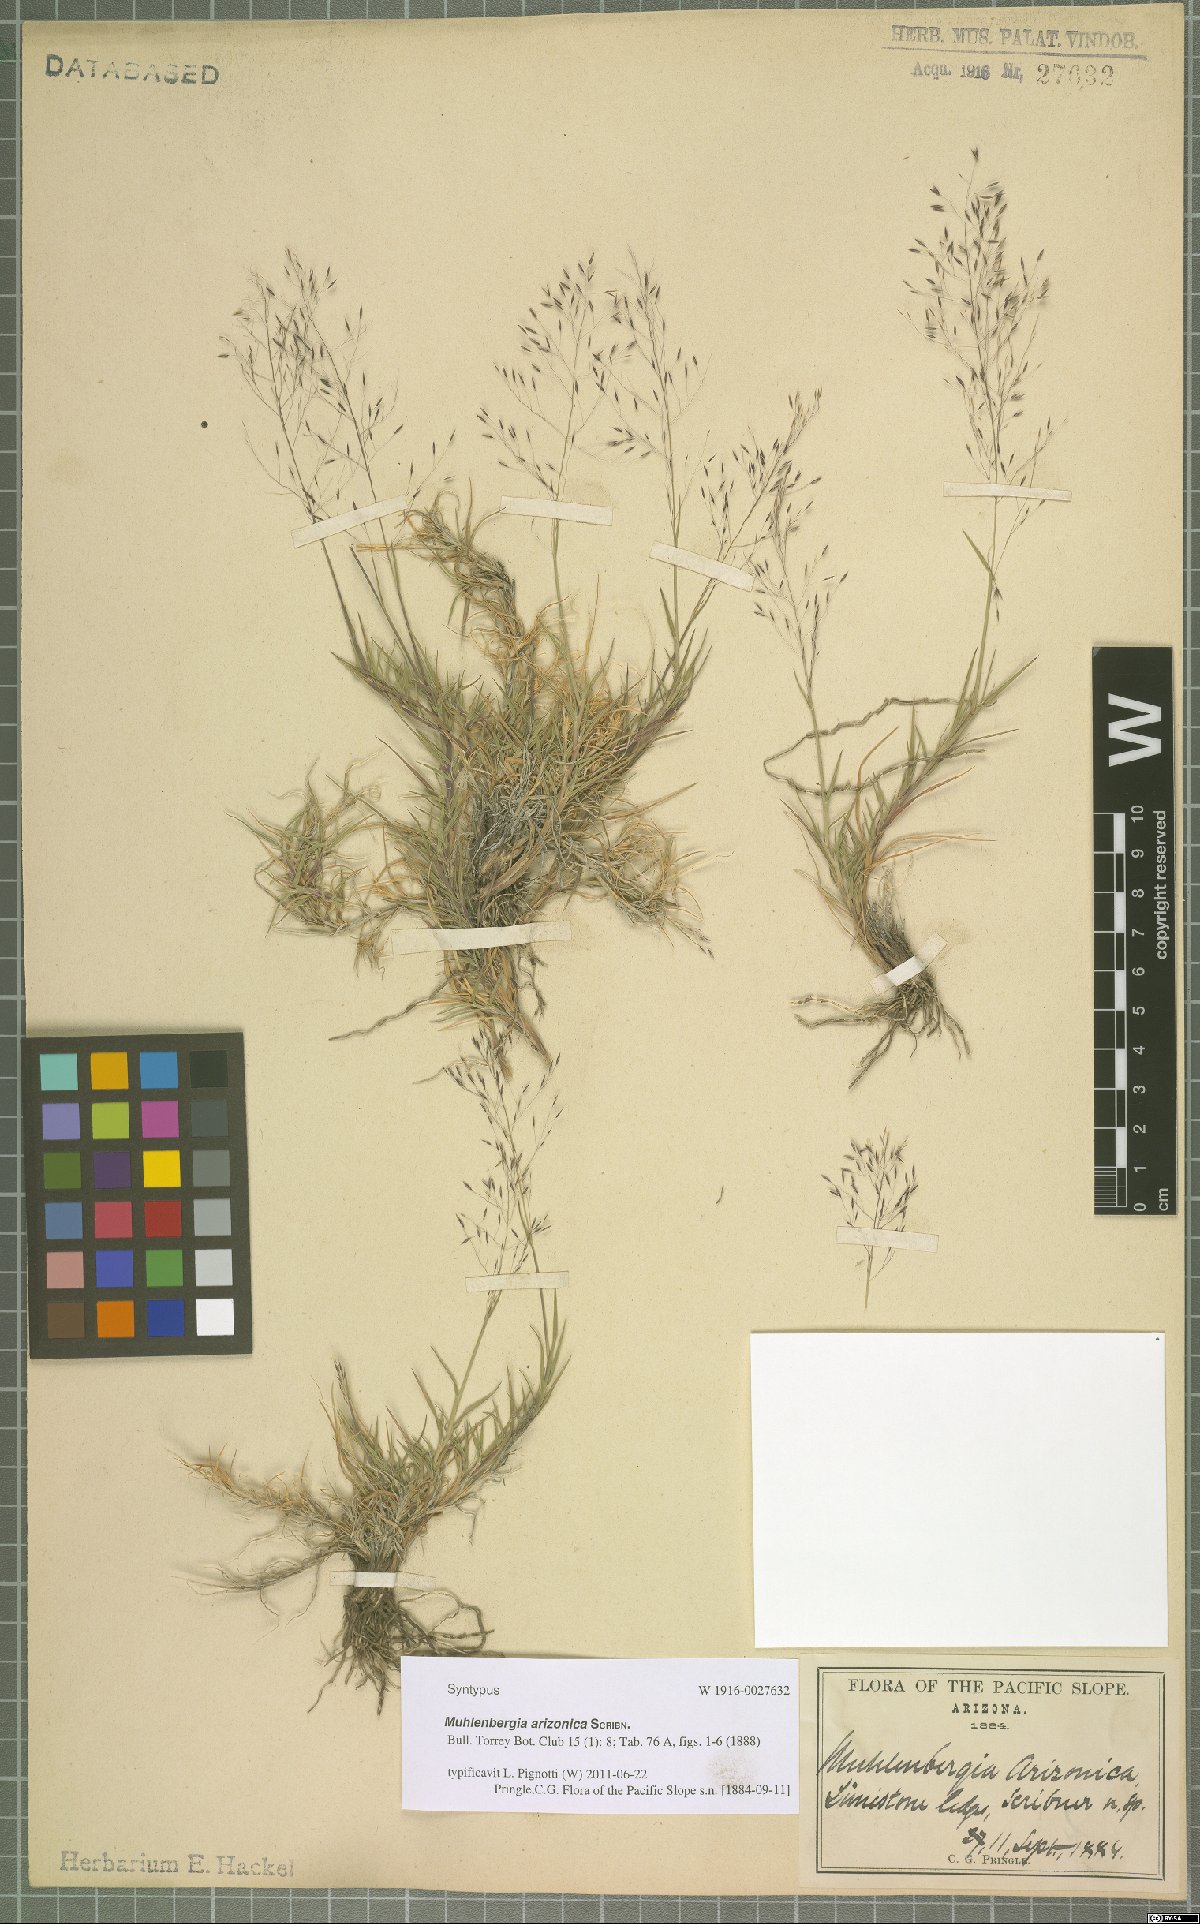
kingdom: Plantae
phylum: Tracheophyta
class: Liliopsida
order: Poales
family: Poaceae
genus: Muhlenbergia
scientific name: Muhlenbergia arizonica
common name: Arizona muhly
